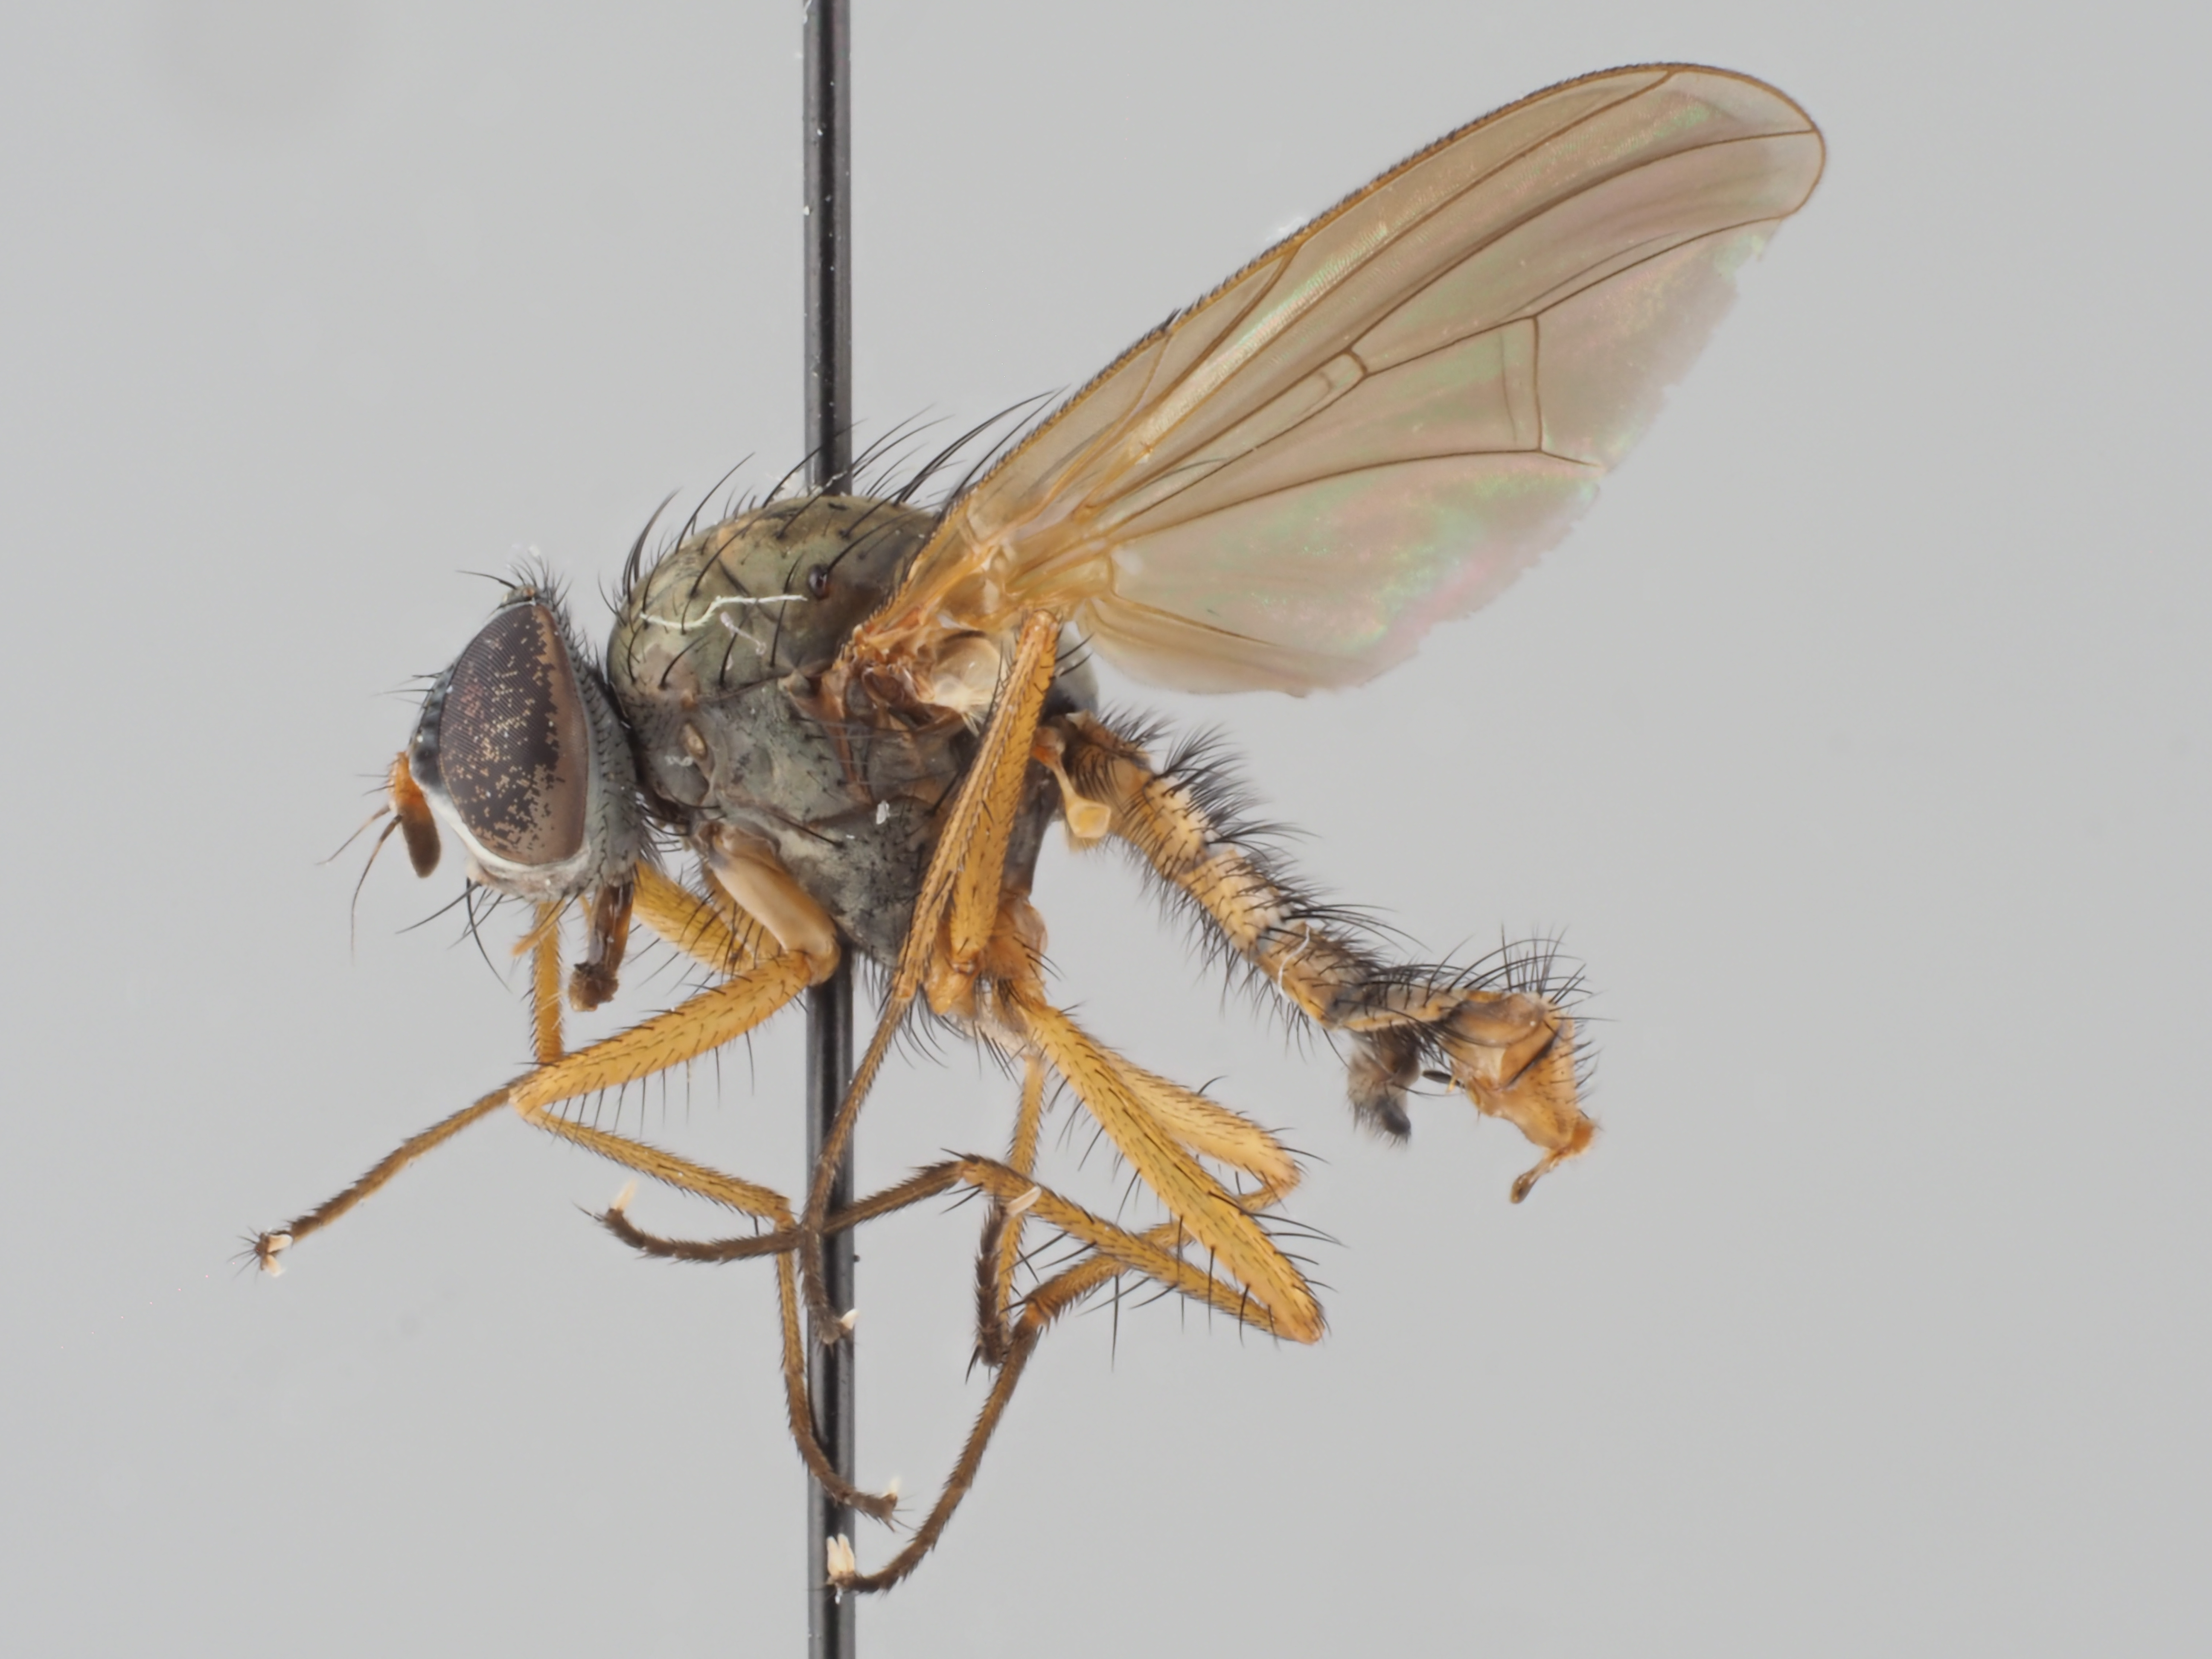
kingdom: Animalia
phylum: Arthropoda
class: Insecta
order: Diptera
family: Anthomyiidae
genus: Pegomya
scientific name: Pegomya incisiva
